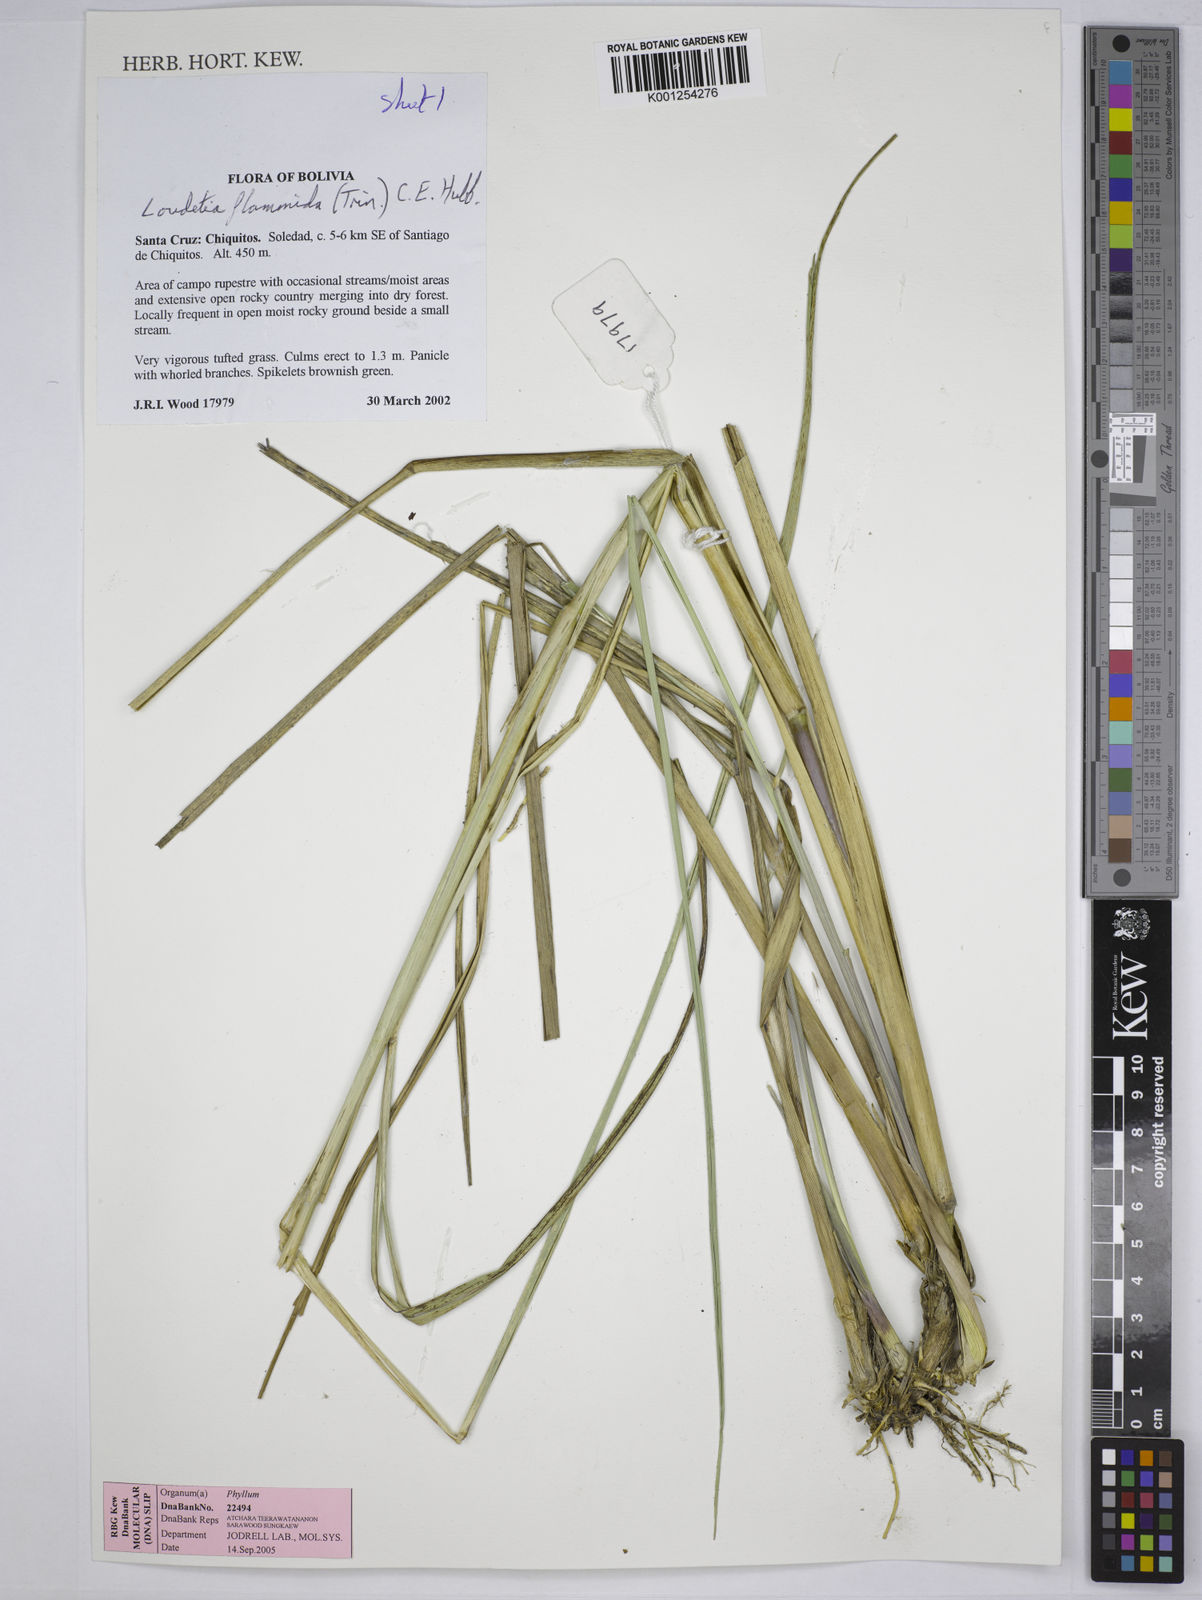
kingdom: Plantae
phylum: Tracheophyta
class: Liliopsida
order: Poales
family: Poaceae
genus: Loudetia
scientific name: Loudetia flammida
